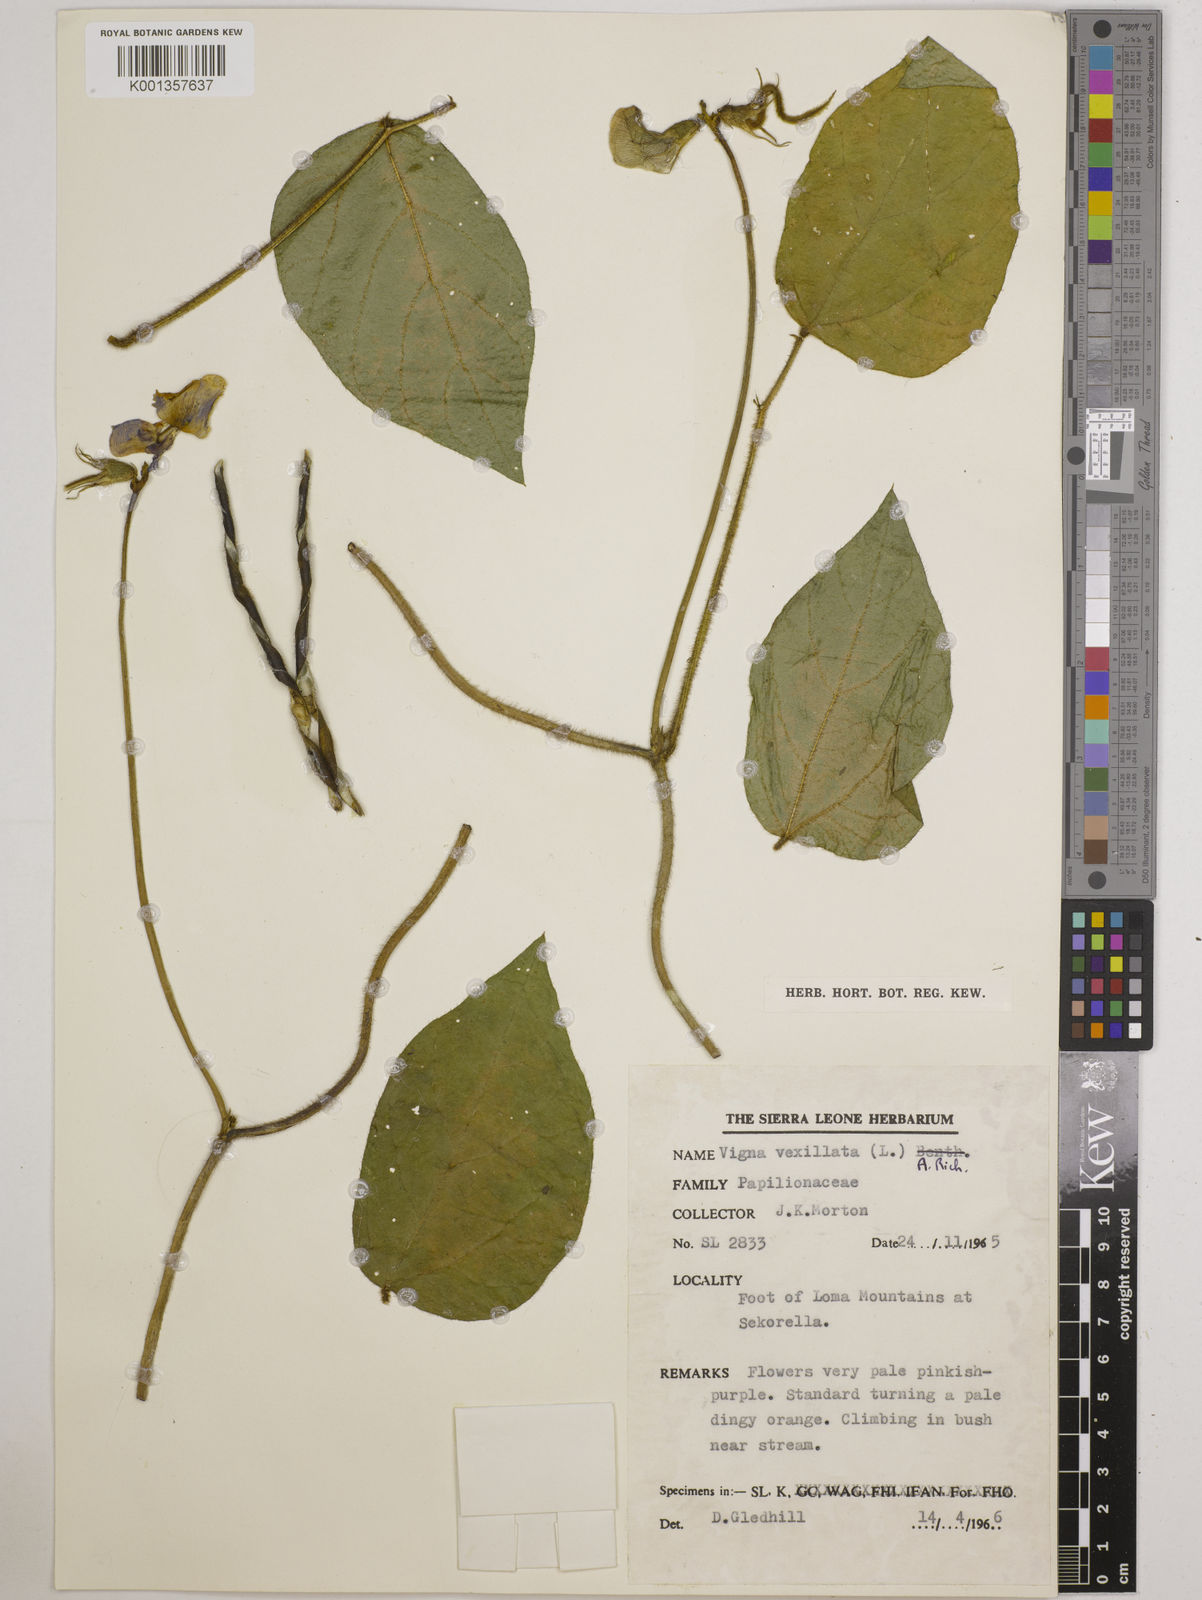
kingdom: Plantae
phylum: Tracheophyta
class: Magnoliopsida
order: Fabales
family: Fabaceae
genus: Vigna
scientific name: Vigna vexillata
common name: Zombi pea
